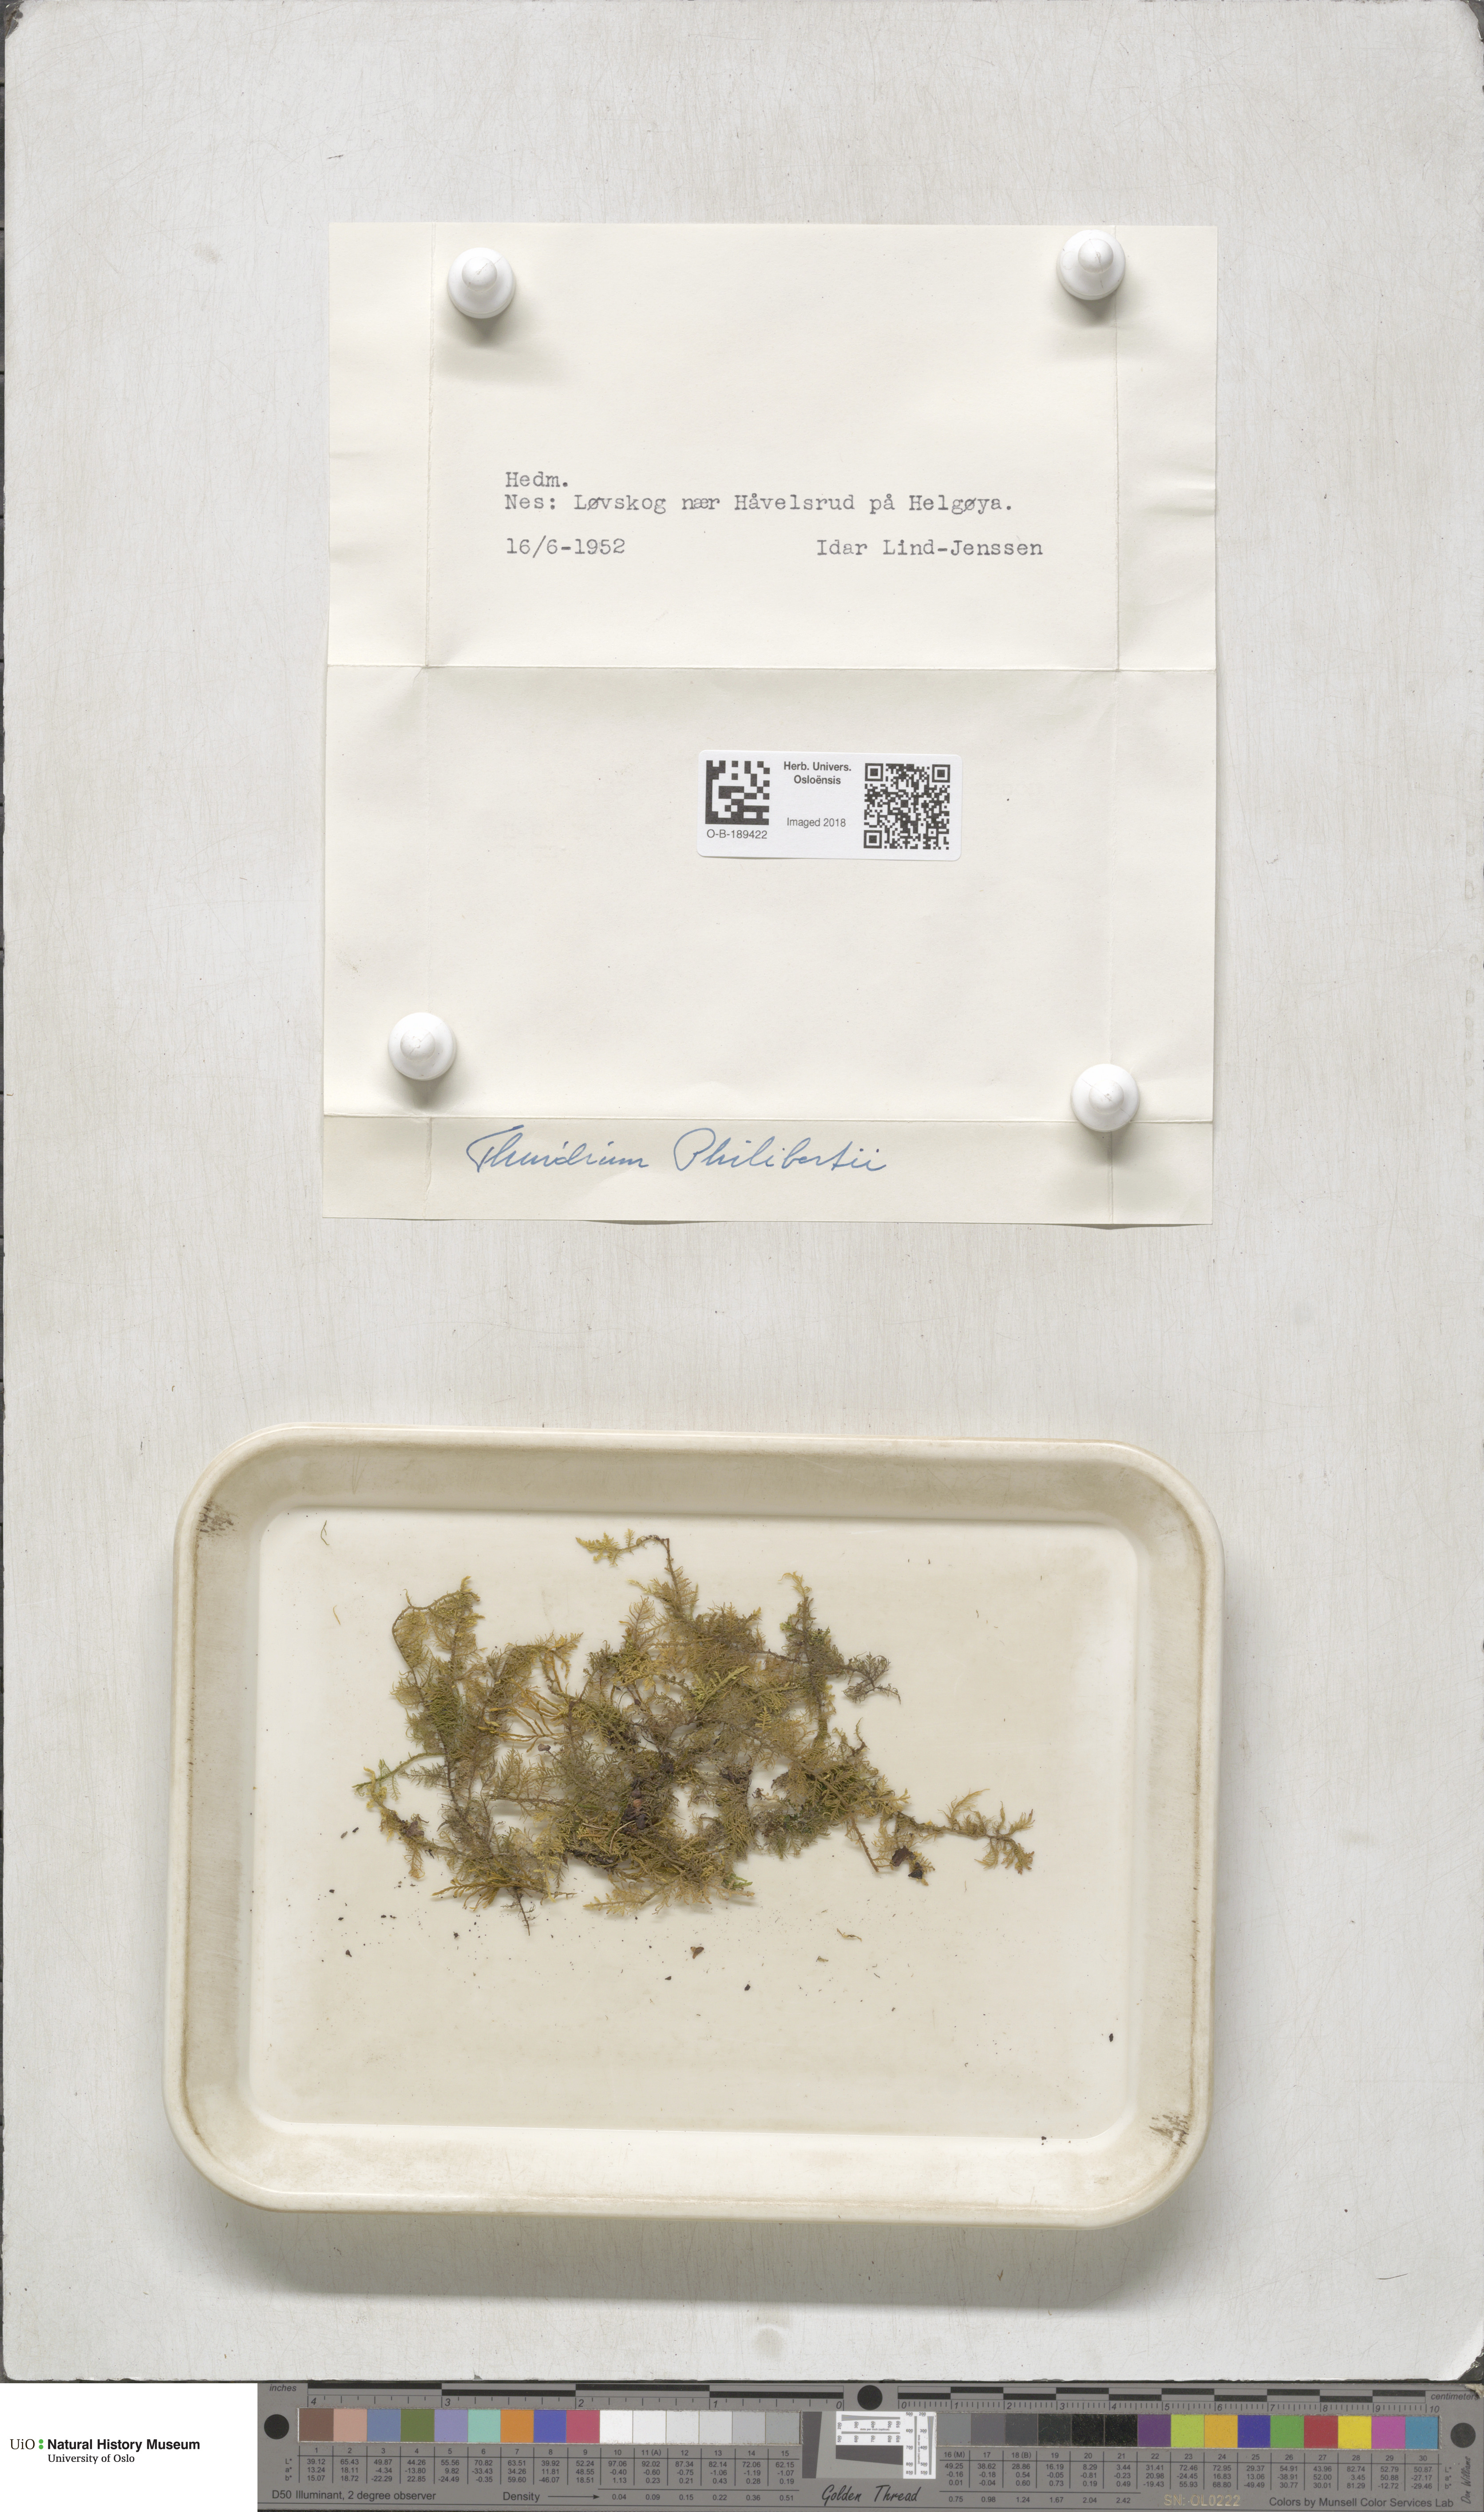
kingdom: Plantae
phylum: Bryophyta
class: Bryopsida
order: Hypnales
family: Thuidiaceae
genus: Thuidium
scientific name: Thuidium assimile
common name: Philibert's fern moss
